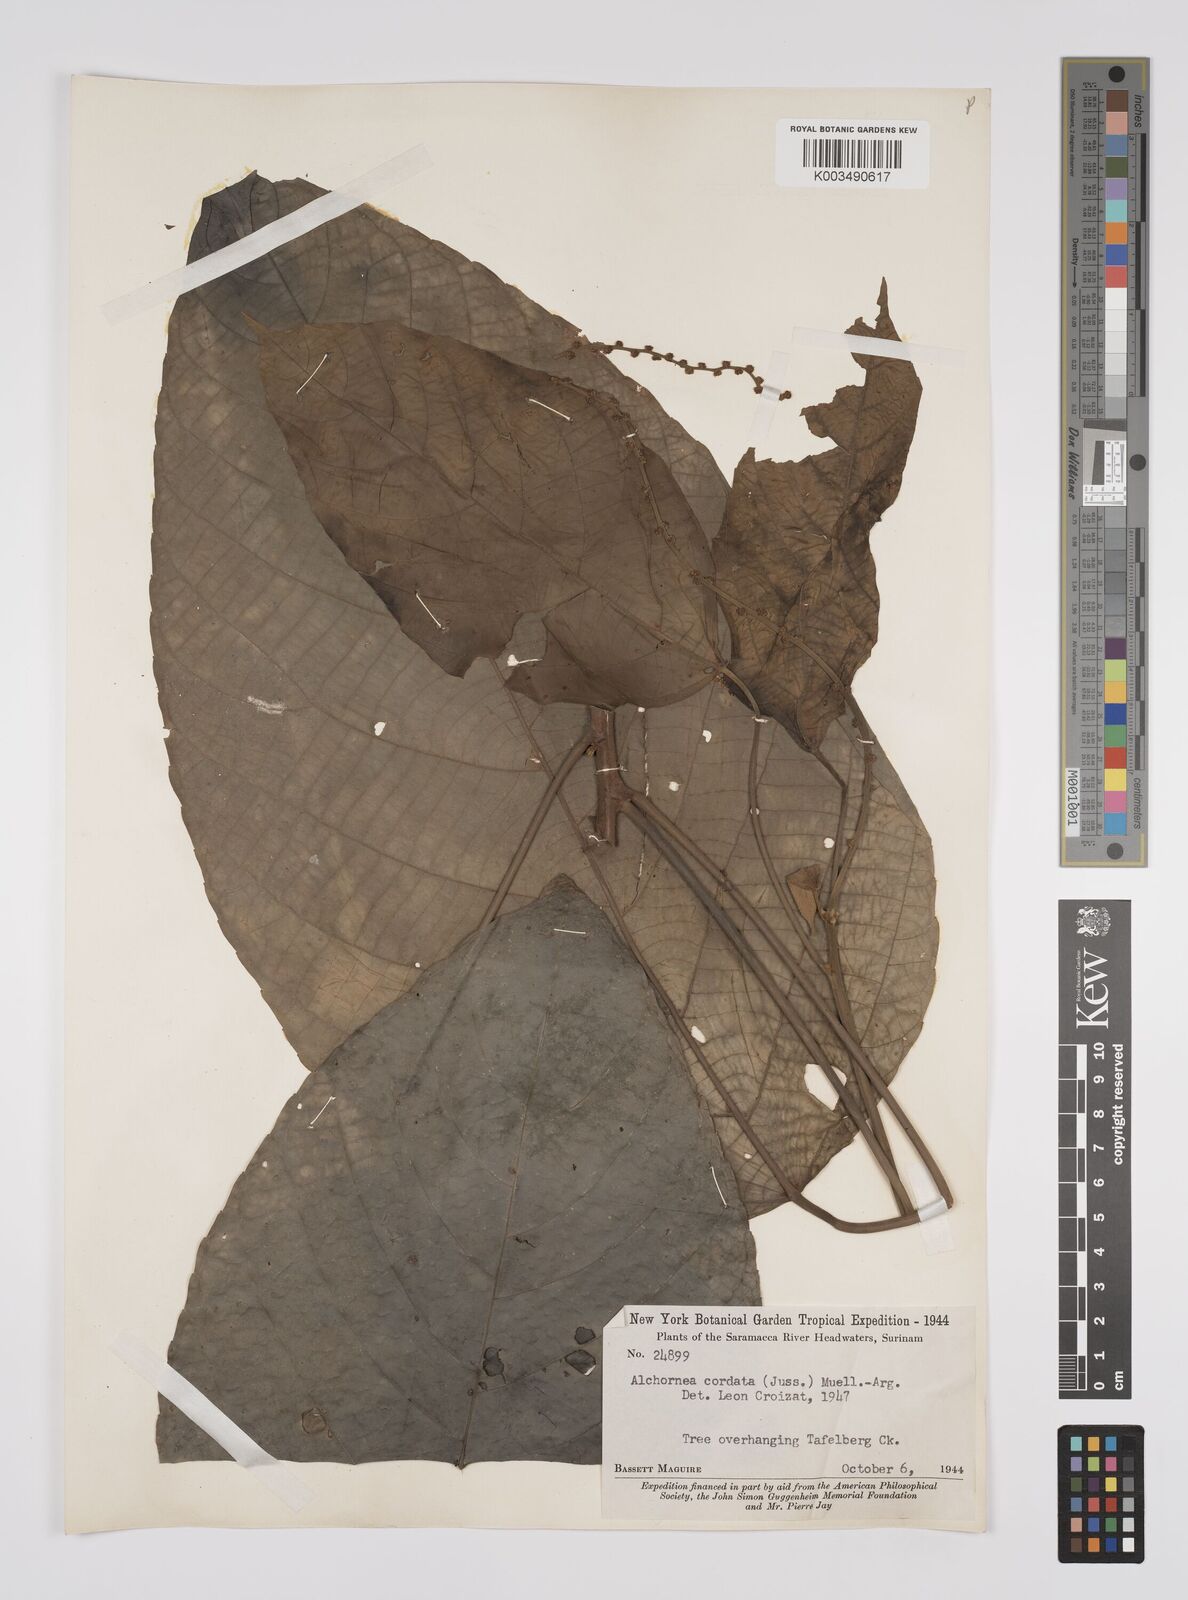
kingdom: Plantae
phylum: Tracheophyta
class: Magnoliopsida
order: Malpighiales
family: Euphorbiaceae
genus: Aparisthmium
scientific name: Aparisthmium cordatum
